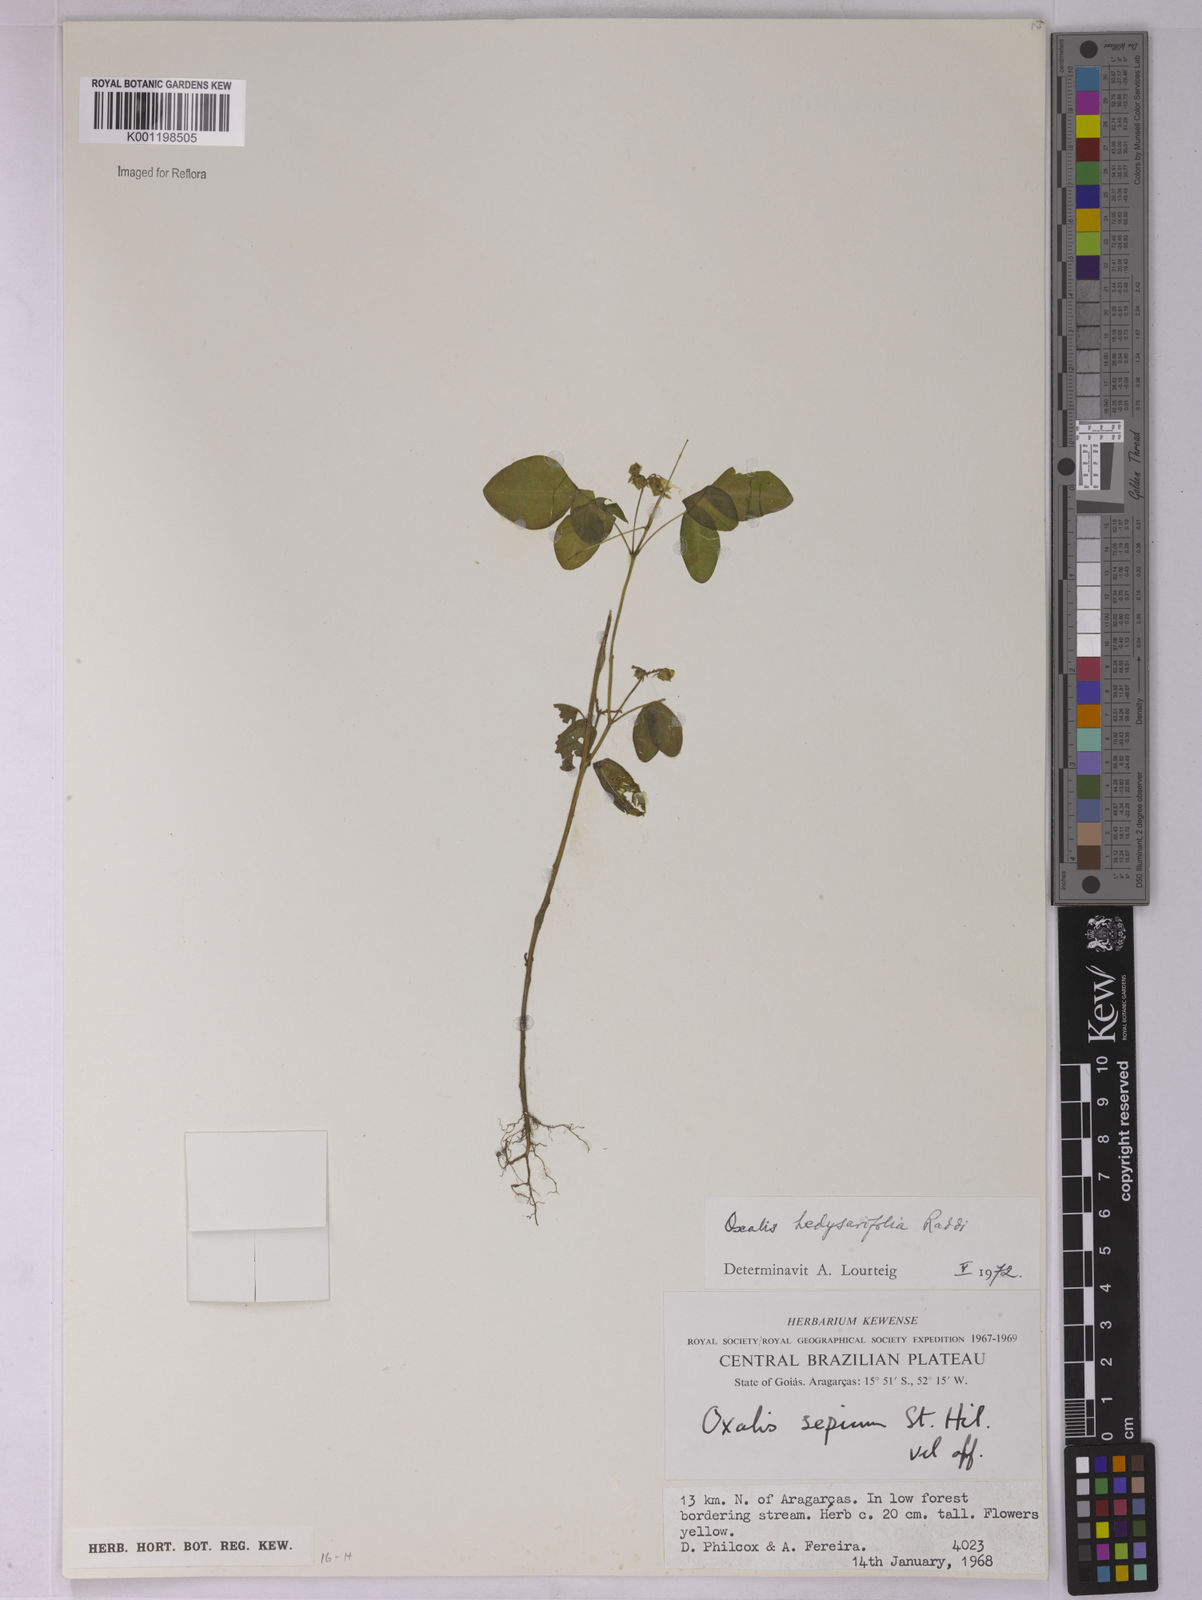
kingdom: Plantae
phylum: Tracheophyta
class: Magnoliopsida
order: Oxalidales
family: Oxalidaceae
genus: Oxalis
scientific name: Oxalis frutescens
